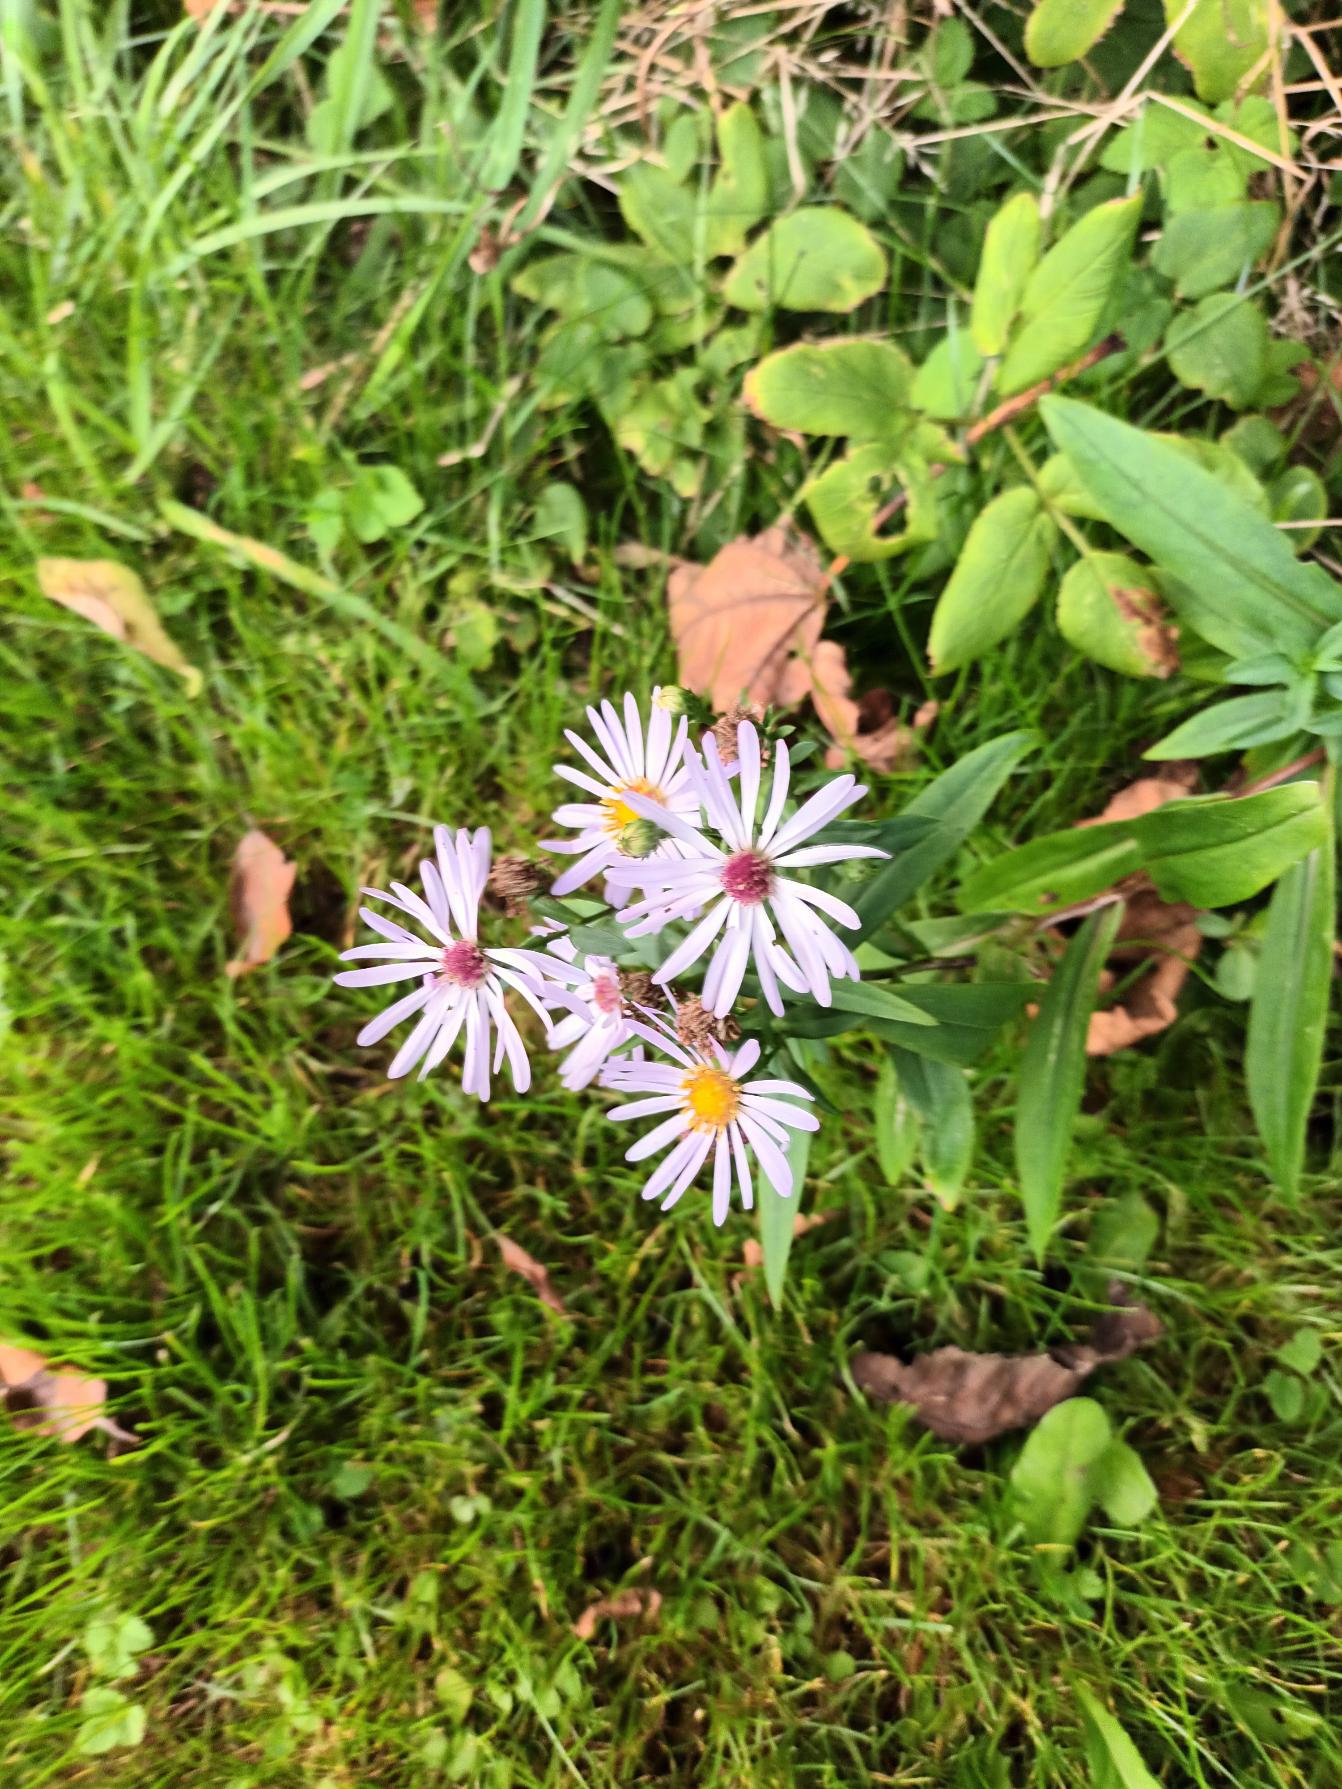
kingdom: Plantae
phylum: Tracheophyta
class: Magnoliopsida
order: Asterales
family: Asteraceae
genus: Symphyotrichum
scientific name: Symphyotrichum laeve
